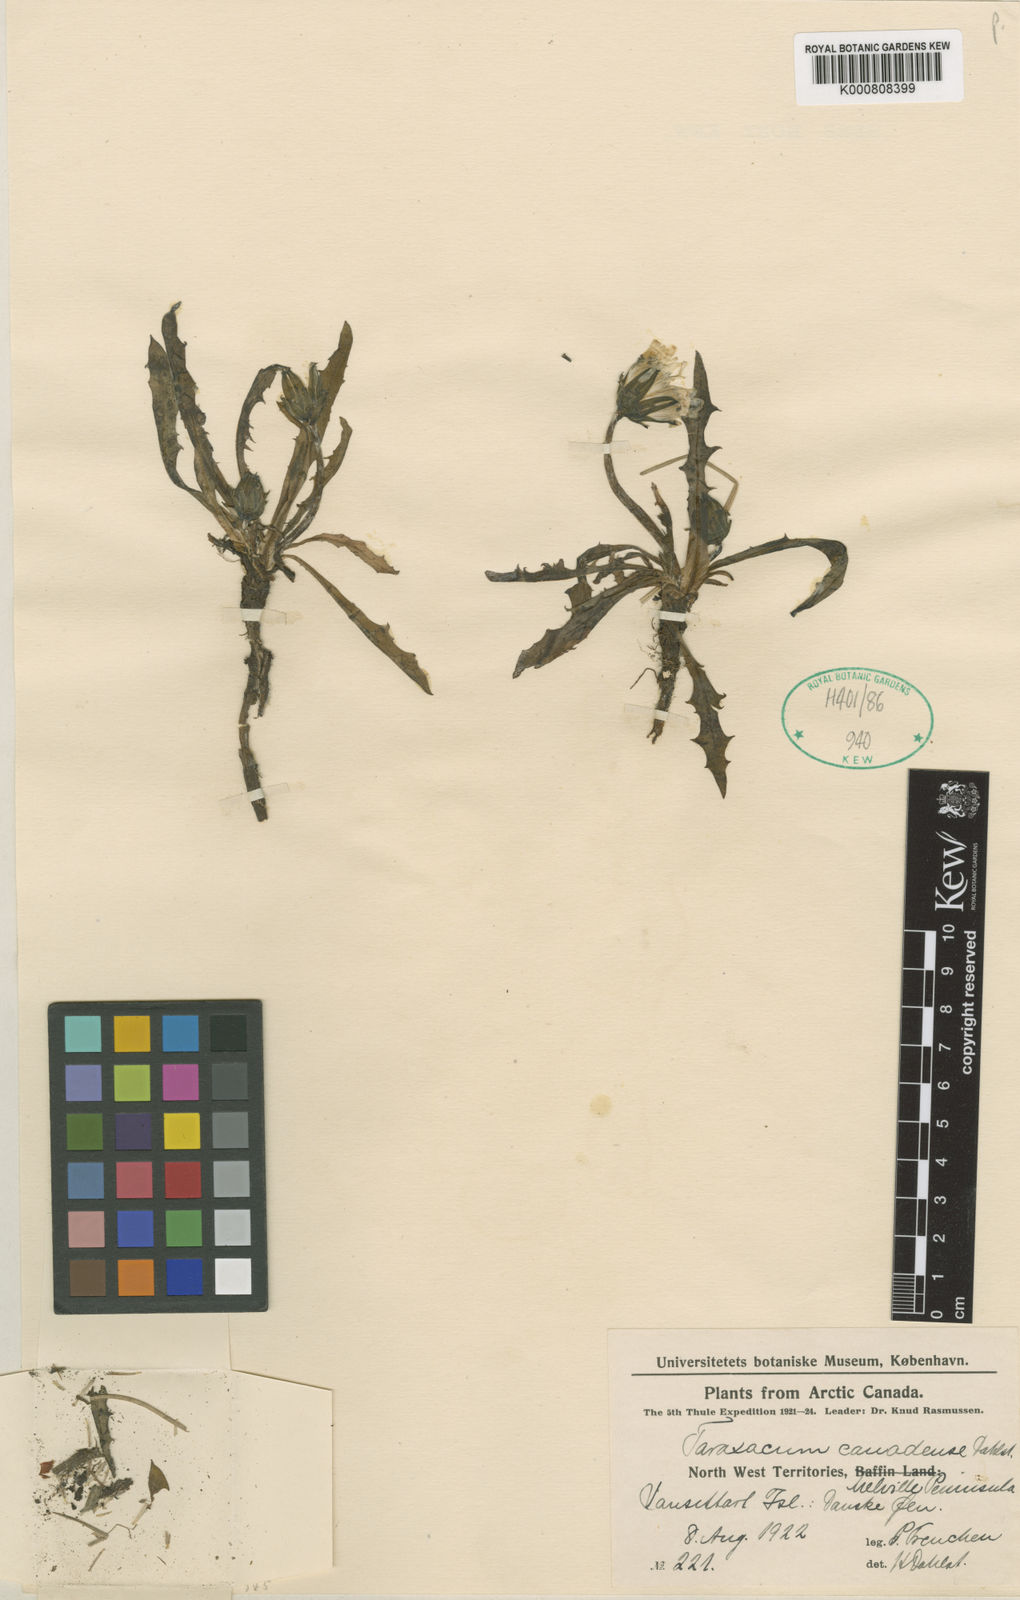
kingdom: Plantae
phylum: Tracheophyta
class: Magnoliopsida
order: Asterales
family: Asteraceae
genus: Taraxacum
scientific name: Taraxacum
